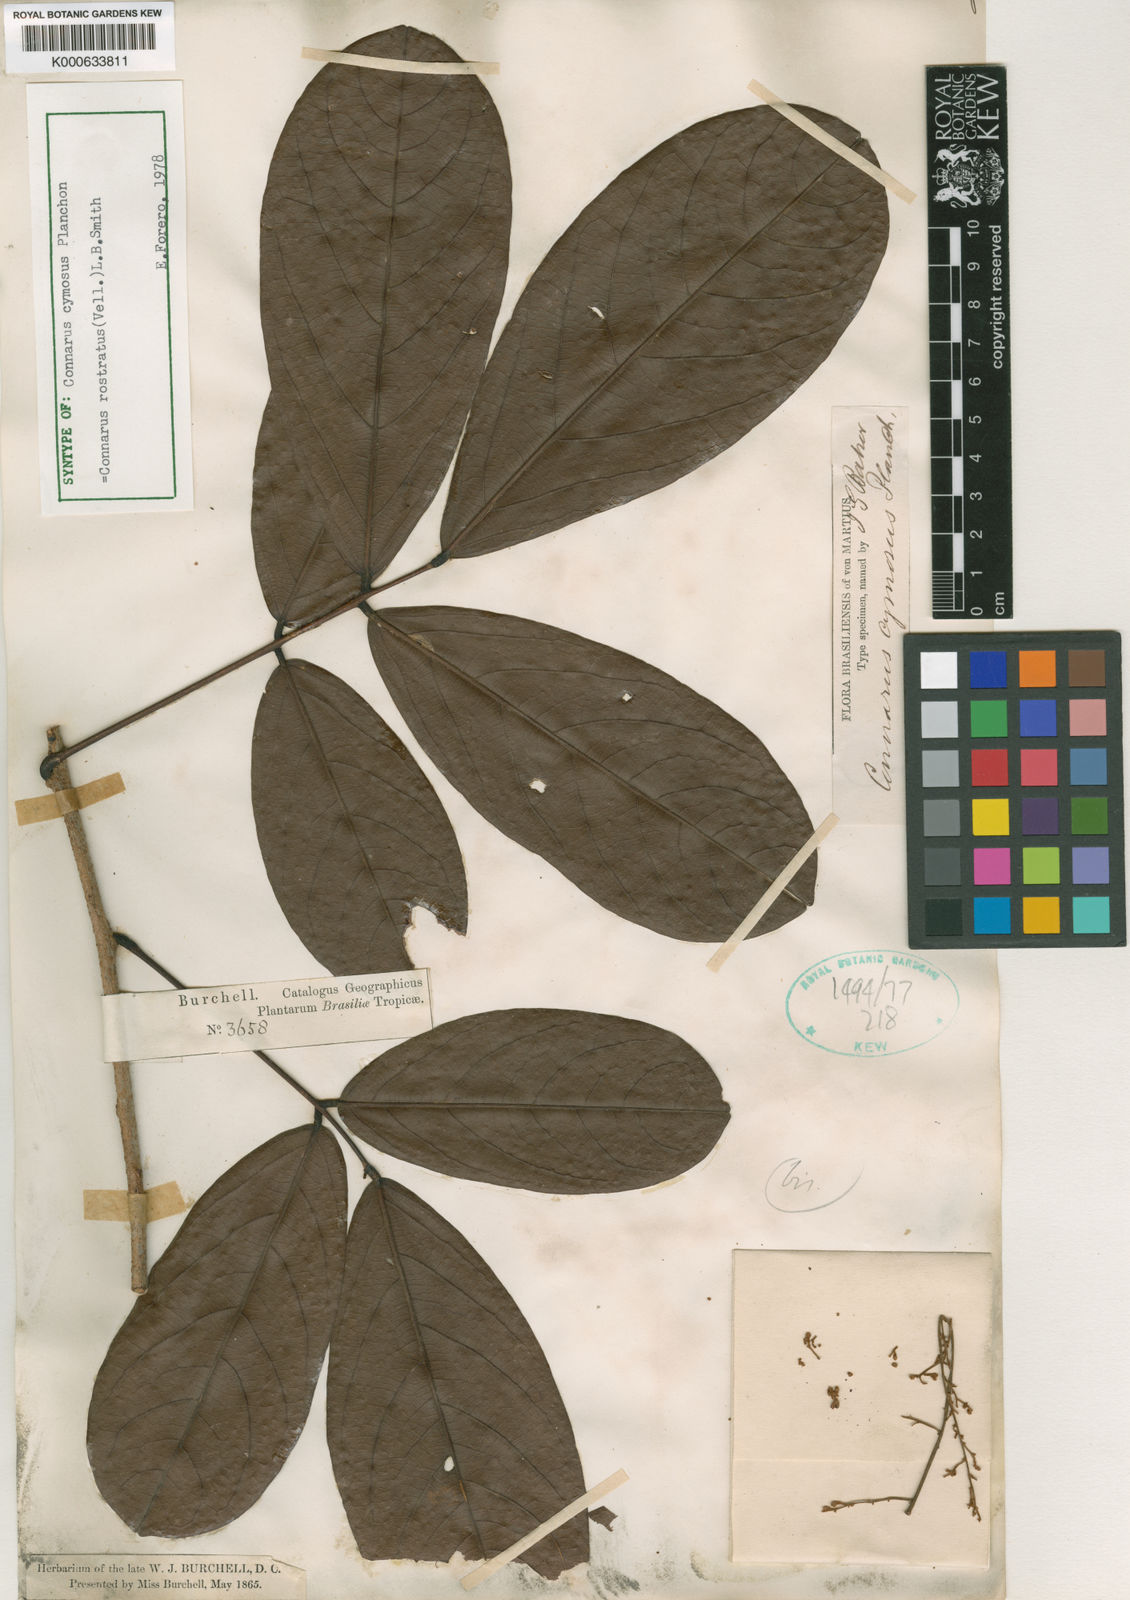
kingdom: Plantae
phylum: Tracheophyta
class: Magnoliopsida
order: Oxalidales
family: Connaraceae
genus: Connarus
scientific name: Connarus rostratus
